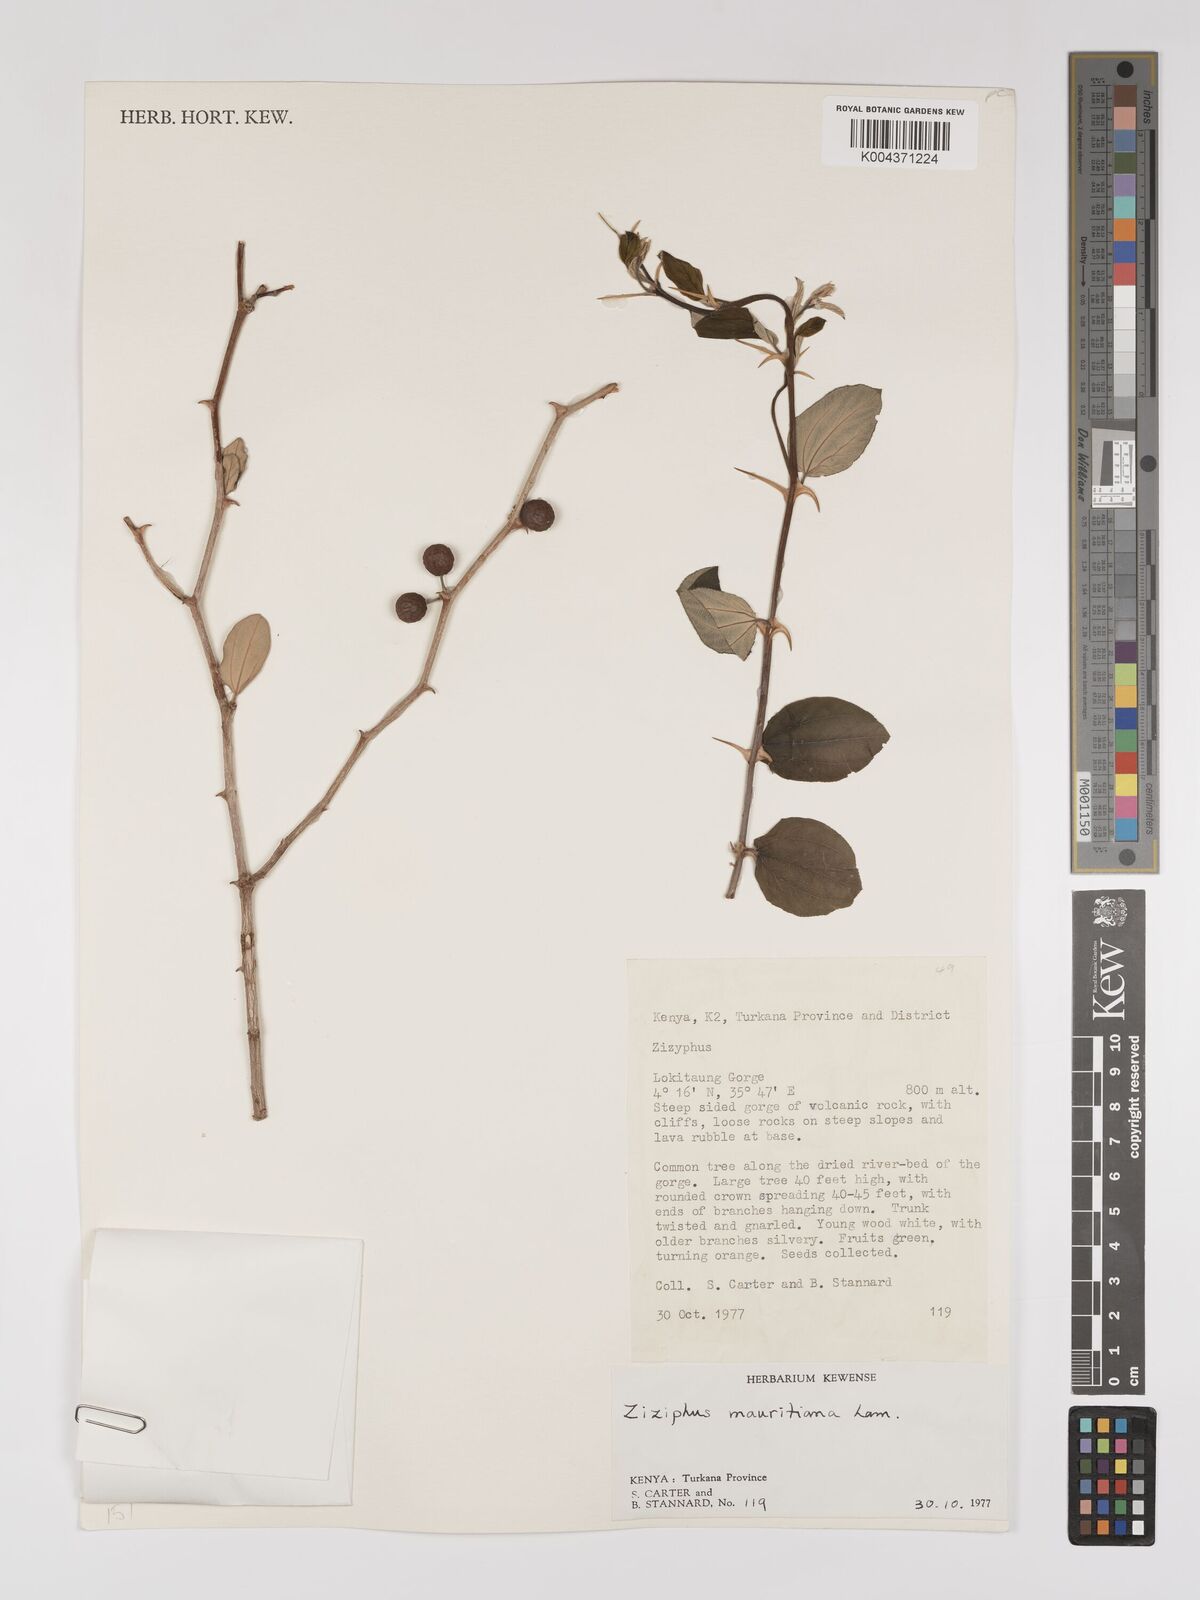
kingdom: Plantae
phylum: Tracheophyta
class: Magnoliopsida
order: Rosales
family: Rhamnaceae
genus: Ziziphus
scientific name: Ziziphus mauritiana
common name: Indian jujube
